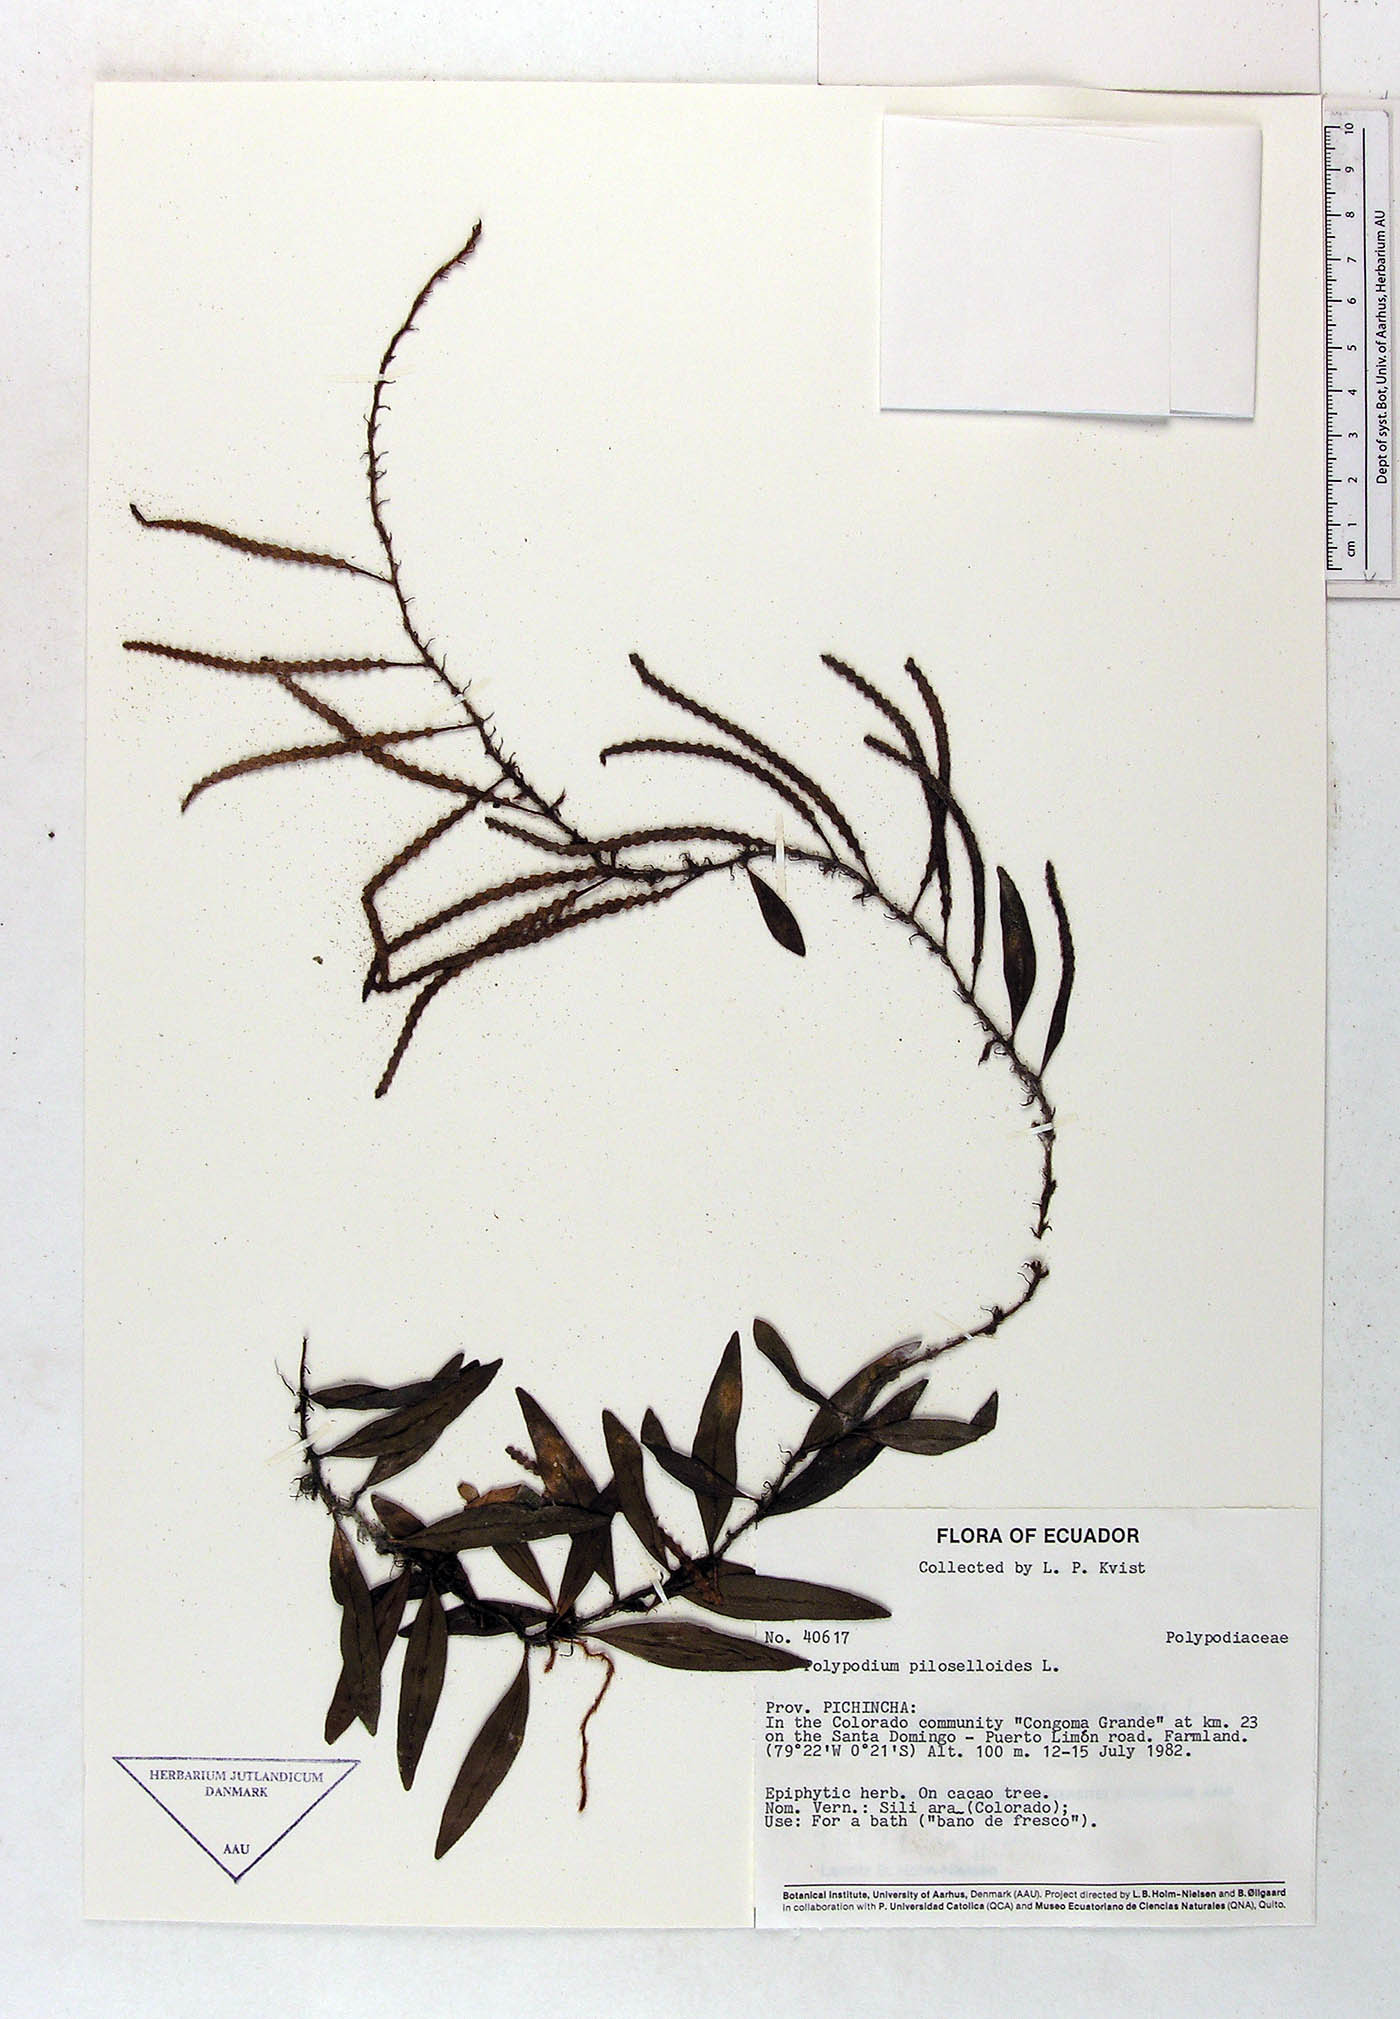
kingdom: Plantae
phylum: Tracheophyta
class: Polypodiopsida
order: Polypodiales
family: Polypodiaceae
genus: Microgramma
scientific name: Microgramma piloselloides
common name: Hairy snakefern
